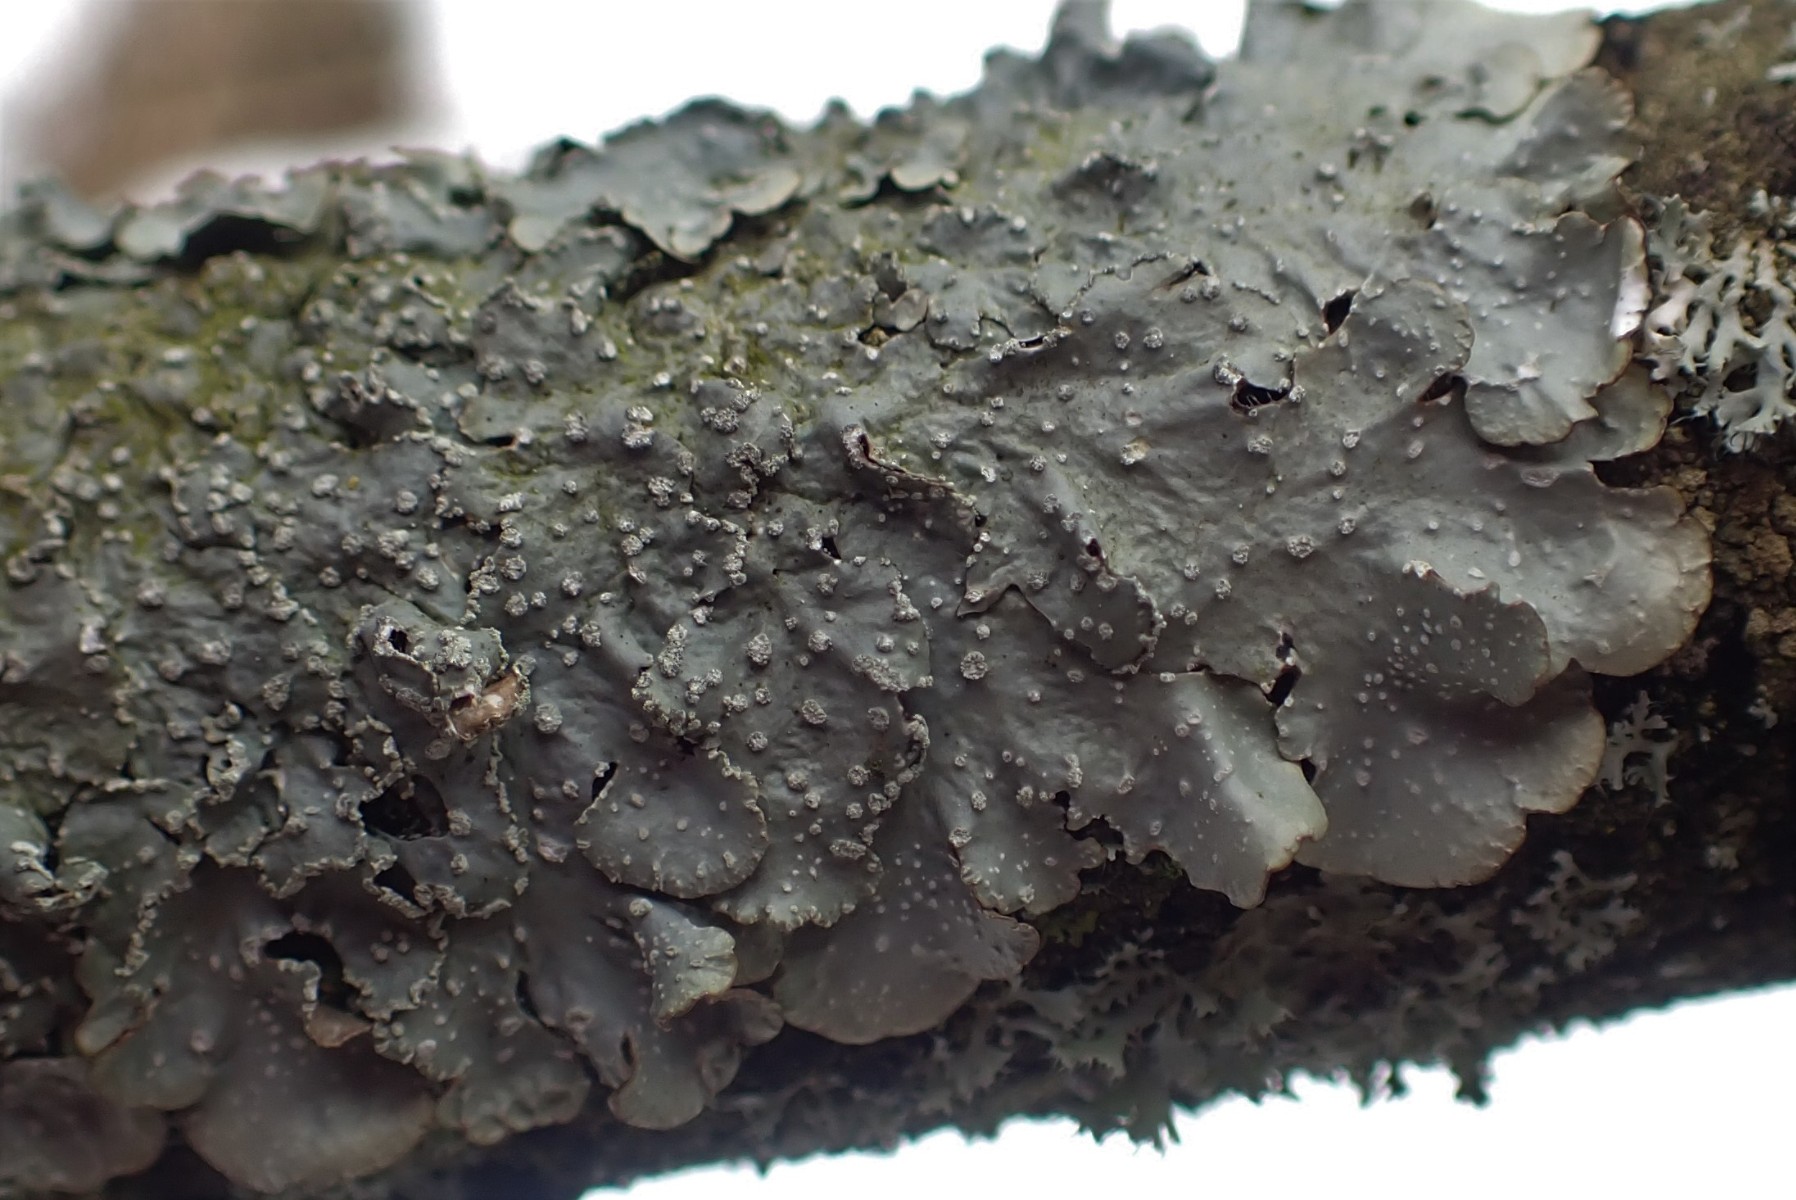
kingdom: Fungi
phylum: Ascomycota
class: Lecanoromycetes
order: Lecanorales
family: Parmeliaceae
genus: Punctelia
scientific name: Punctelia subrudecta
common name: punkt-skållav
